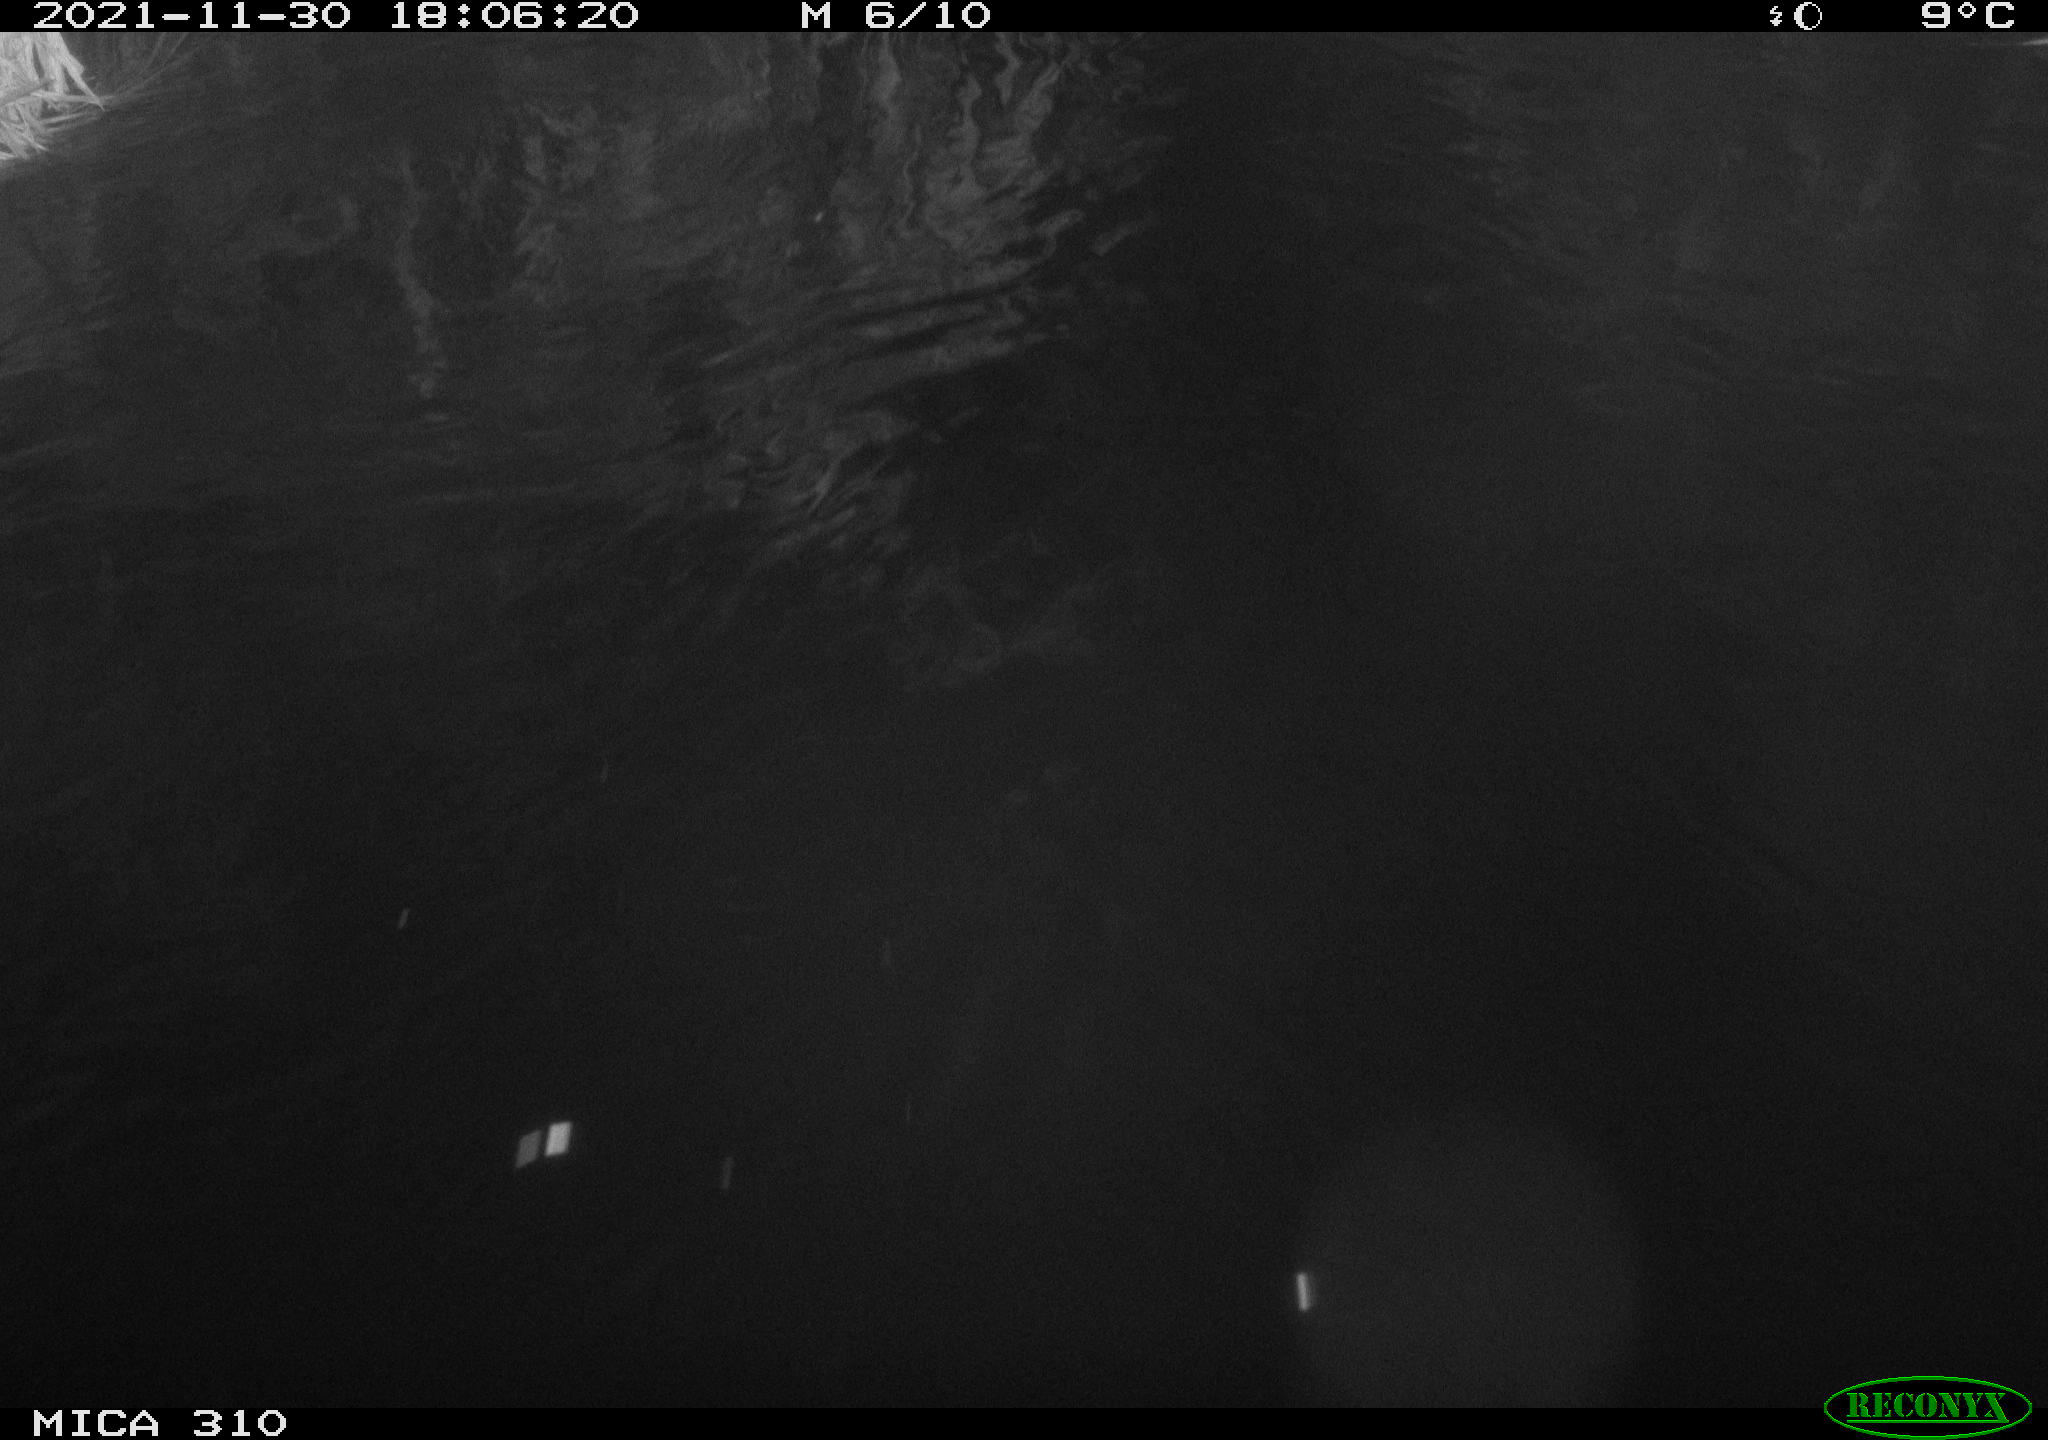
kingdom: Animalia
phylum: Chordata
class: Mammalia
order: Rodentia
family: Muridae
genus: Rattus
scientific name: Rattus norvegicus
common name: Brown rat
